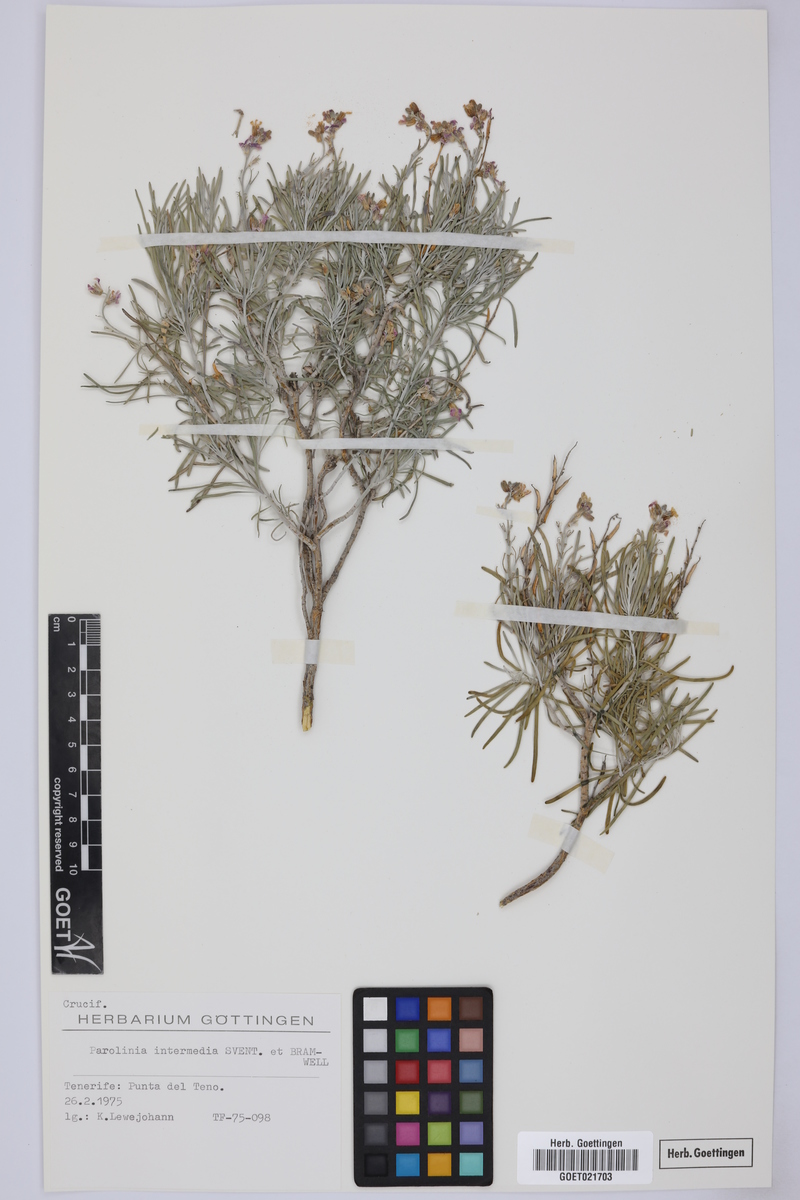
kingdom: Plantae
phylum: Tracheophyta
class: Magnoliopsida
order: Brassicales
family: Brassicaceae
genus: Parolinia
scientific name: Parolinia intermedia
